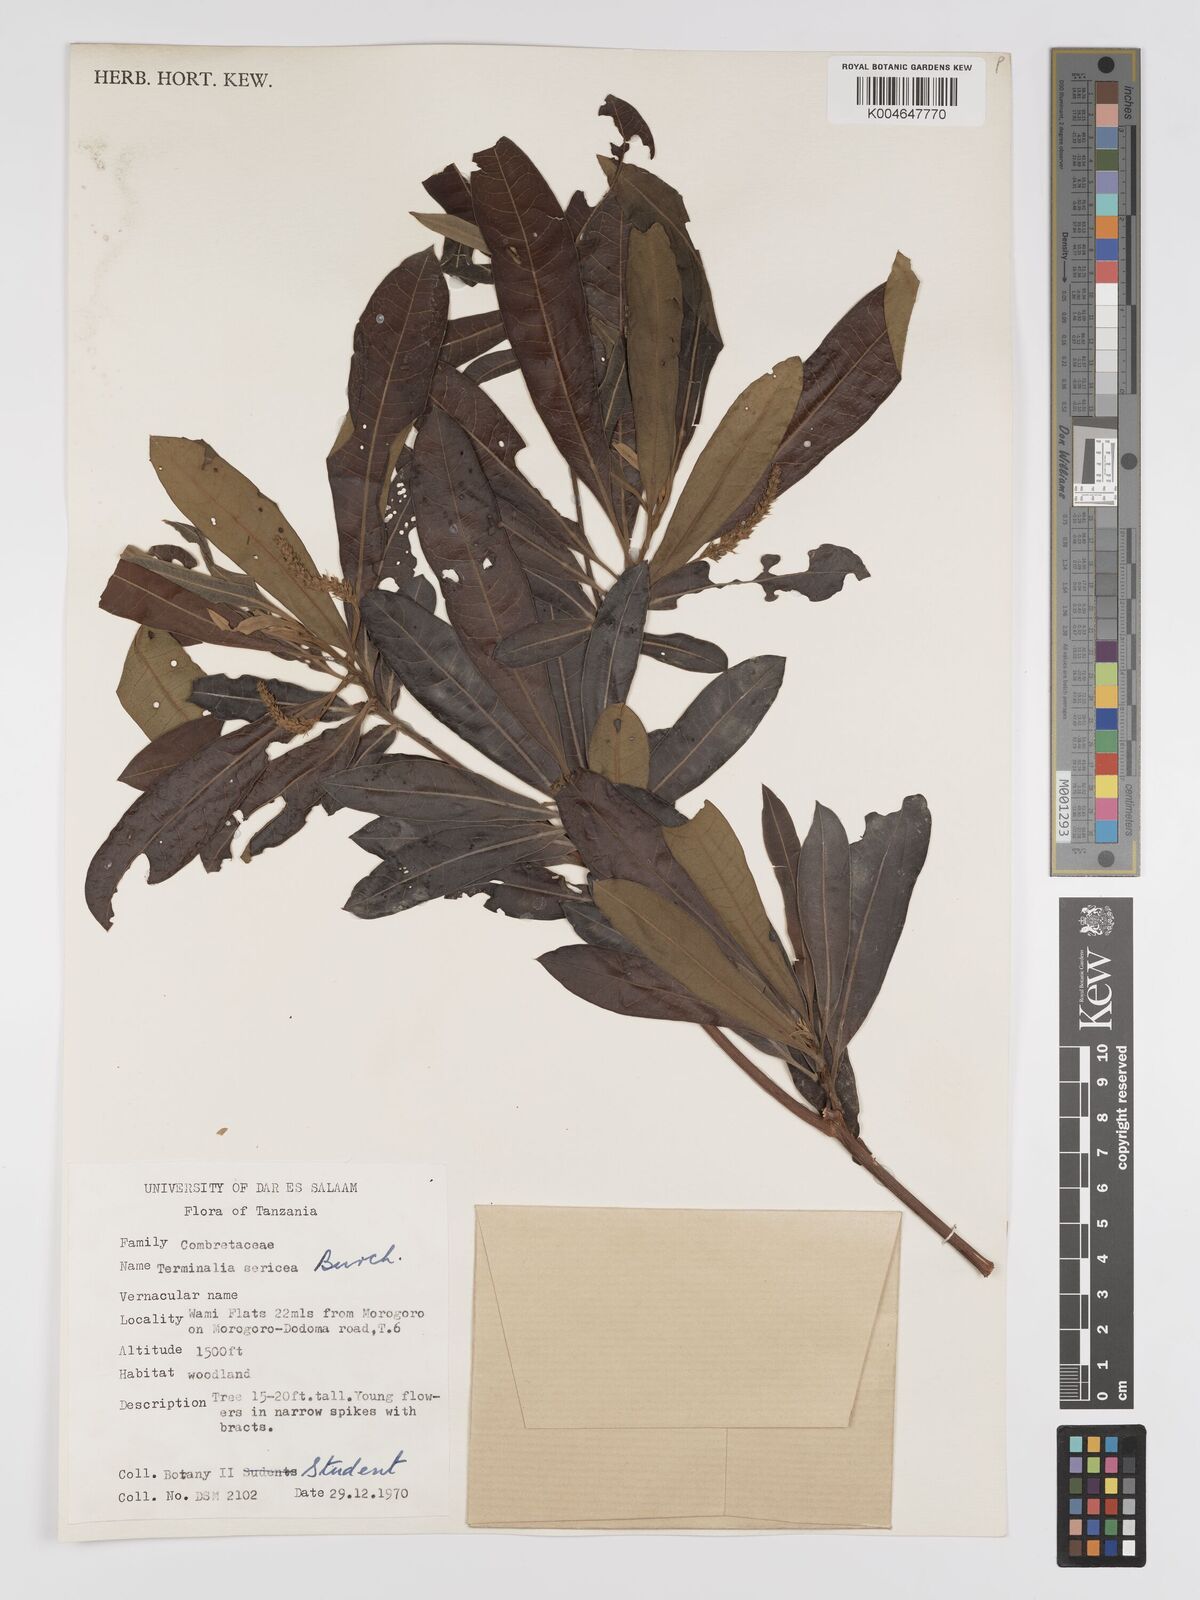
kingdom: Plantae
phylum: Tracheophyta
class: Magnoliopsida
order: Myrtales
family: Combretaceae
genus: Terminalia
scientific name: Terminalia
